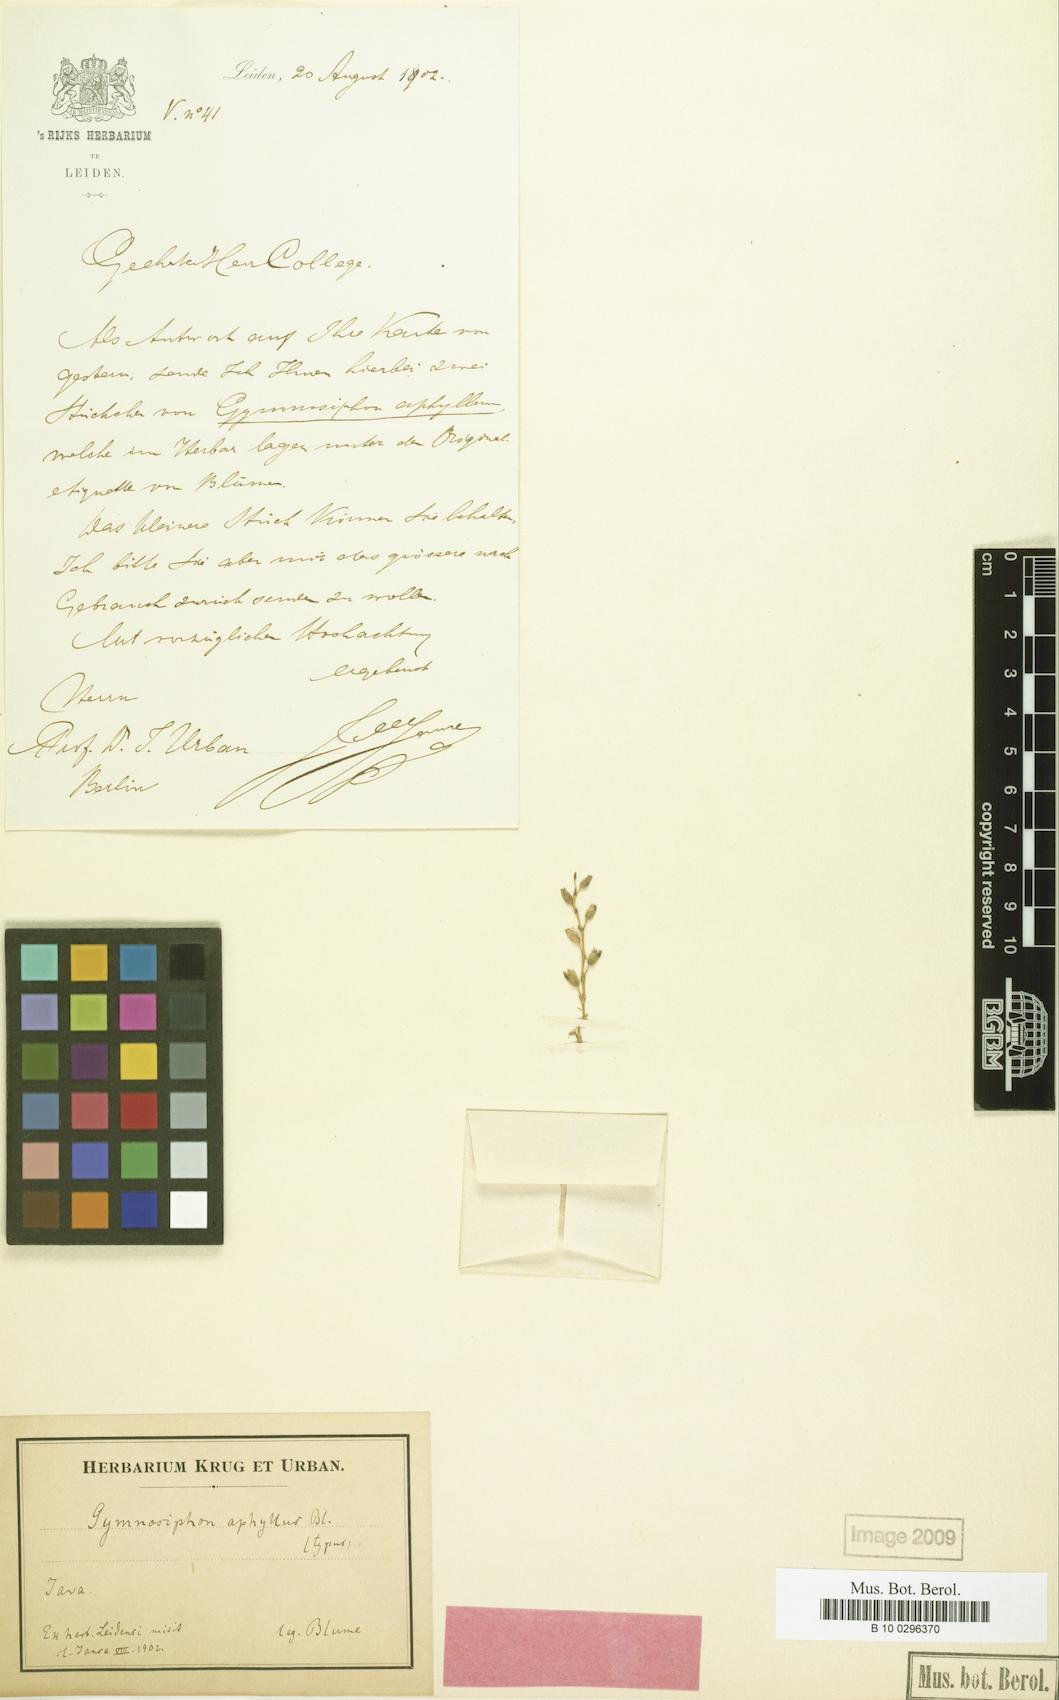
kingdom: Plantae
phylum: Tracheophyta
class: Liliopsida
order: Dioscoreales
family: Burmanniaceae
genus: Gymnosiphon
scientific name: Gymnosiphon aphyllus
